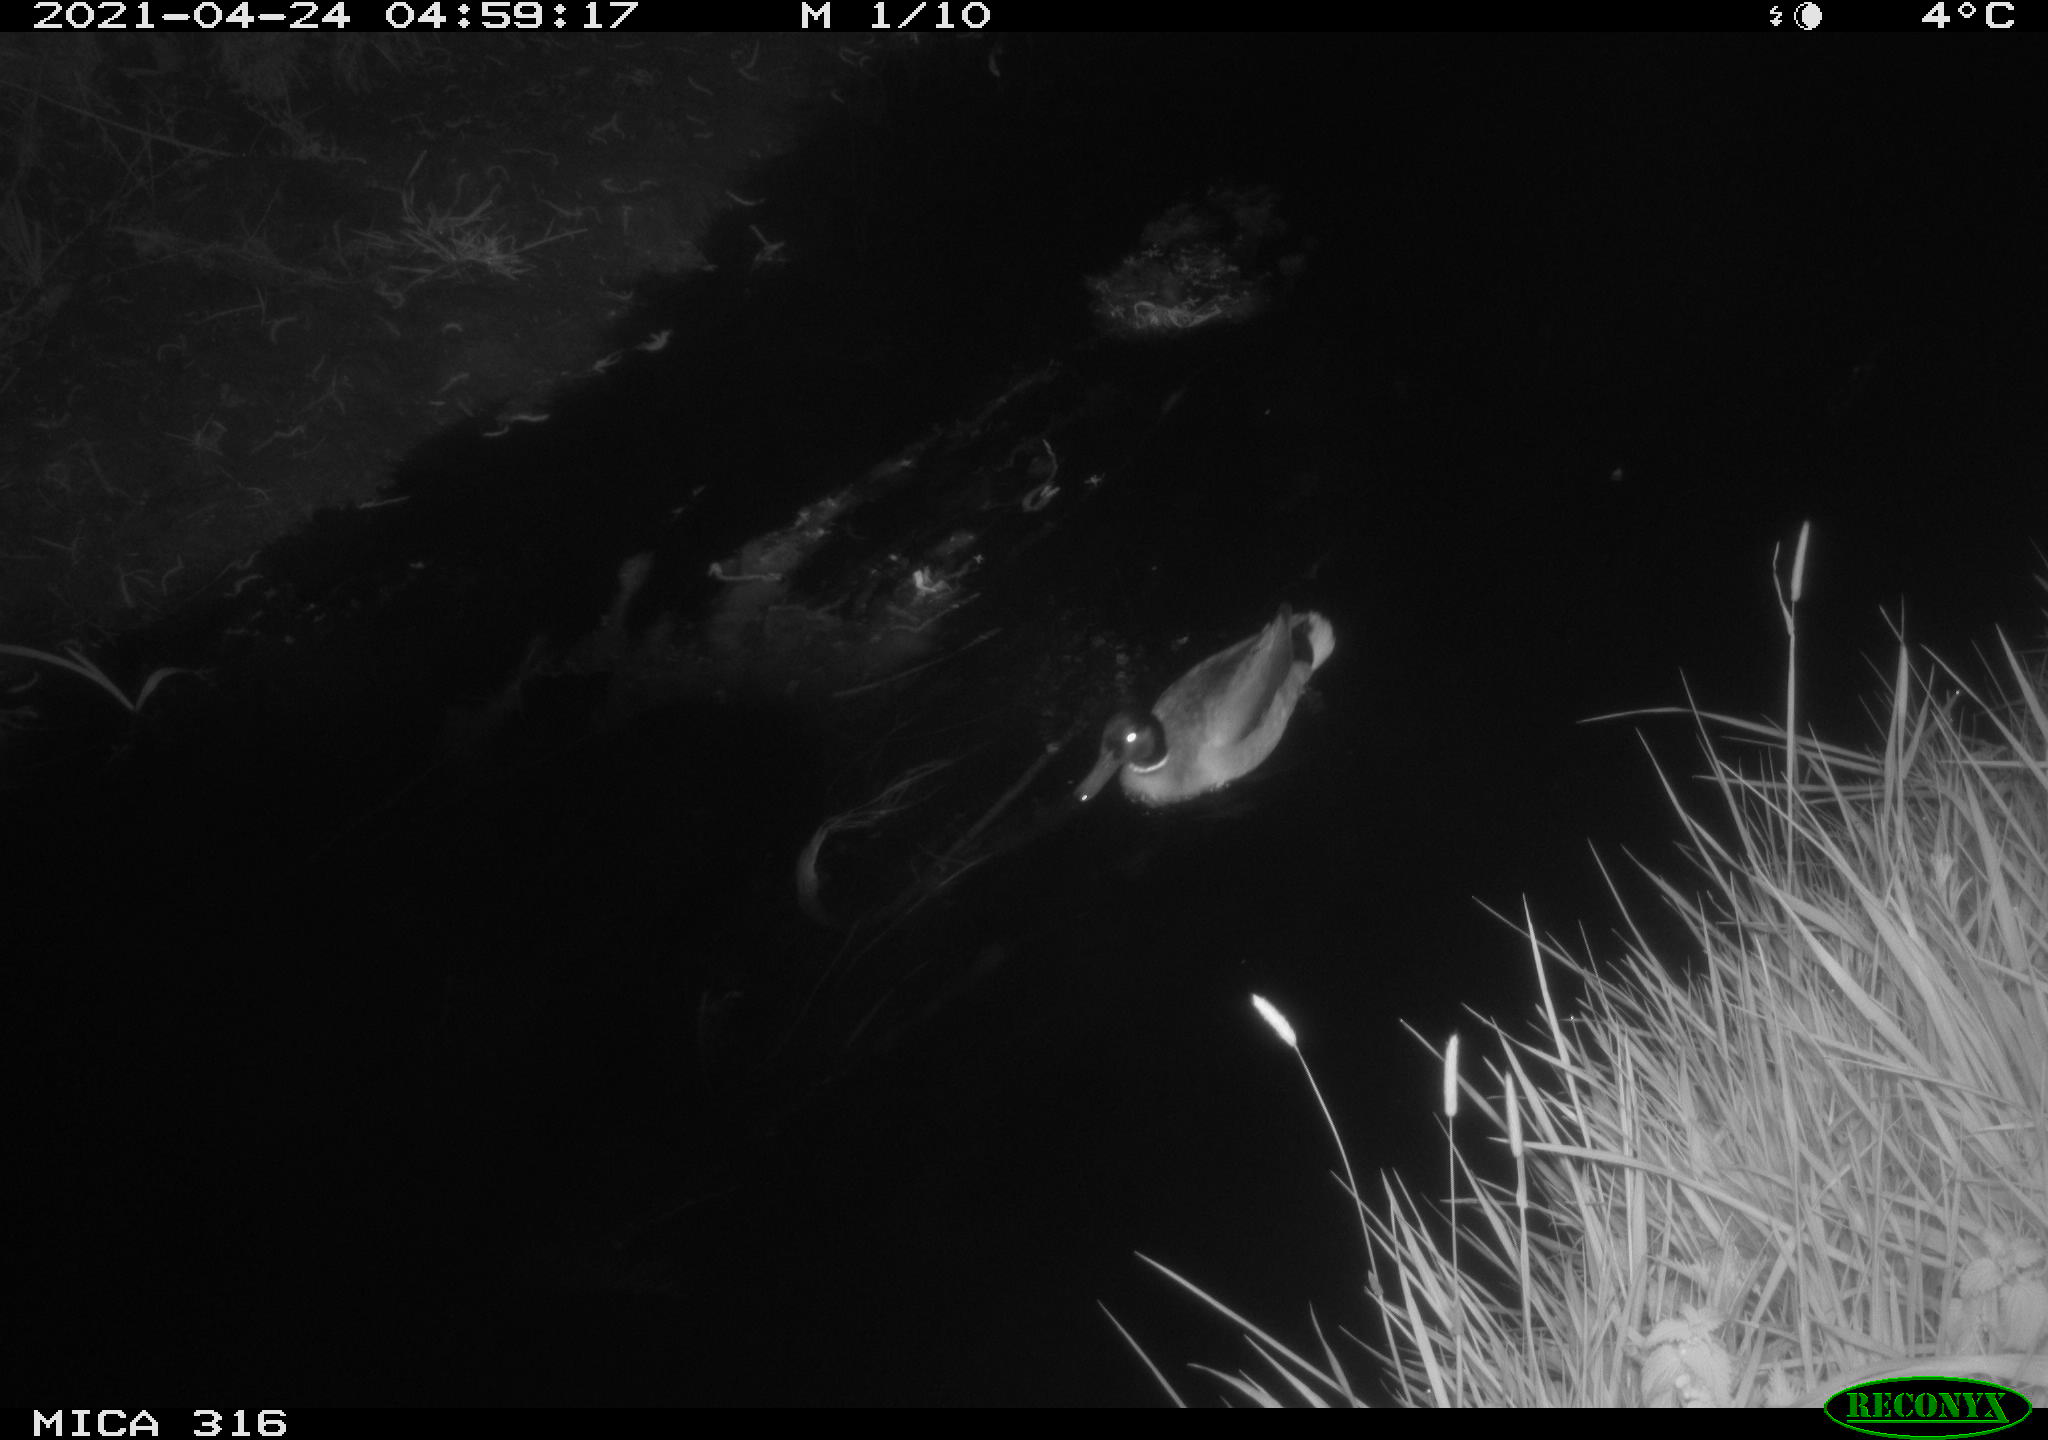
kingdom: Animalia
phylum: Chordata
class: Aves
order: Anseriformes
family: Anatidae
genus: Anas
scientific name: Anas platyrhynchos
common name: Mallard
